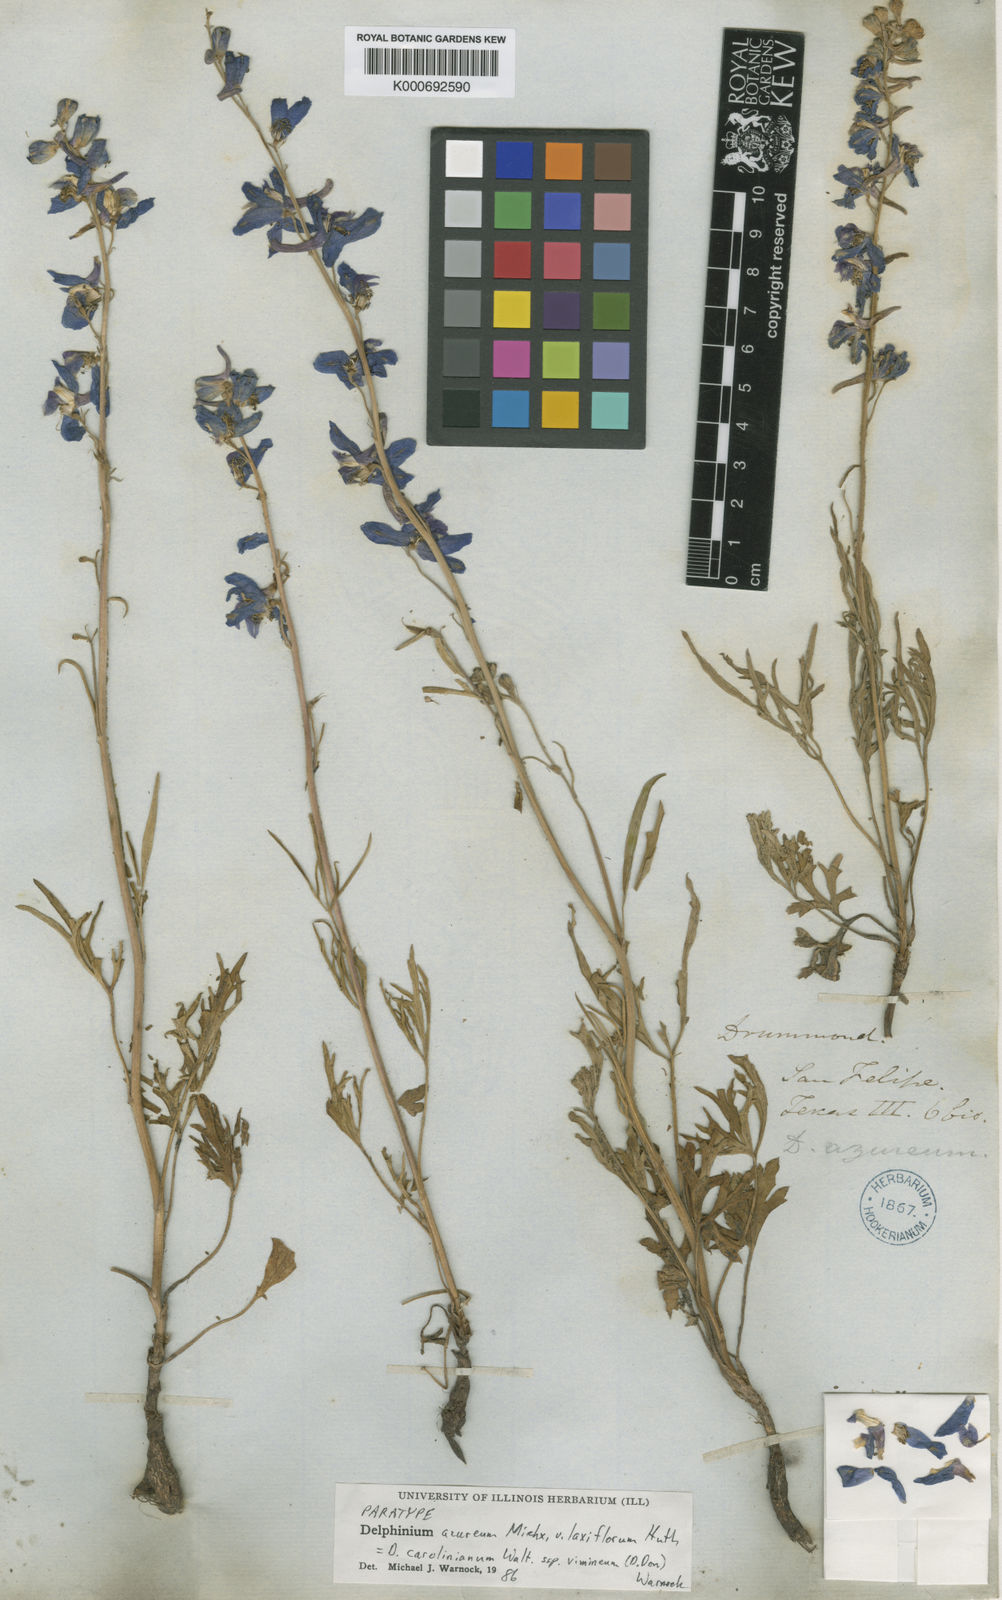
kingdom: Plantae
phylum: Tracheophyta
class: Magnoliopsida
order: Ranunculales
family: Ranunculaceae
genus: Delphinium
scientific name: Delphinium carolinianum
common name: Carolina larkspur
